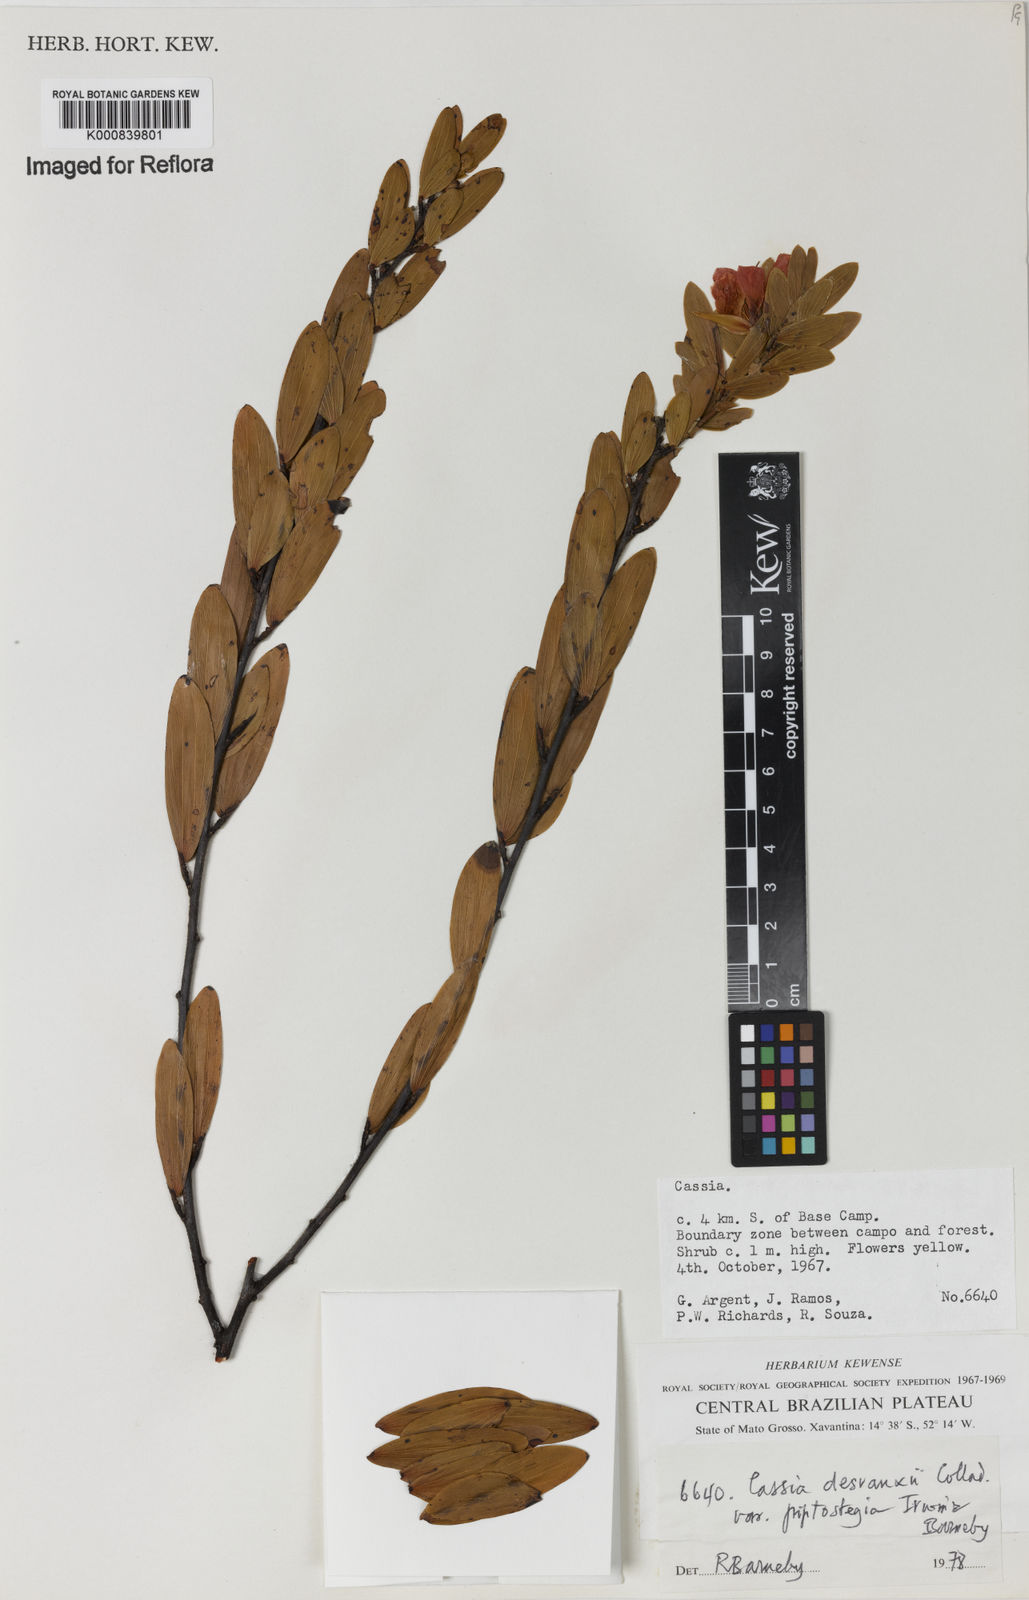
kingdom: Plantae
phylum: Tracheophyta
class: Magnoliopsida
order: Fabales
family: Fabaceae
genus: Chamaecrista
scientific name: Chamaecrista desvauxii
